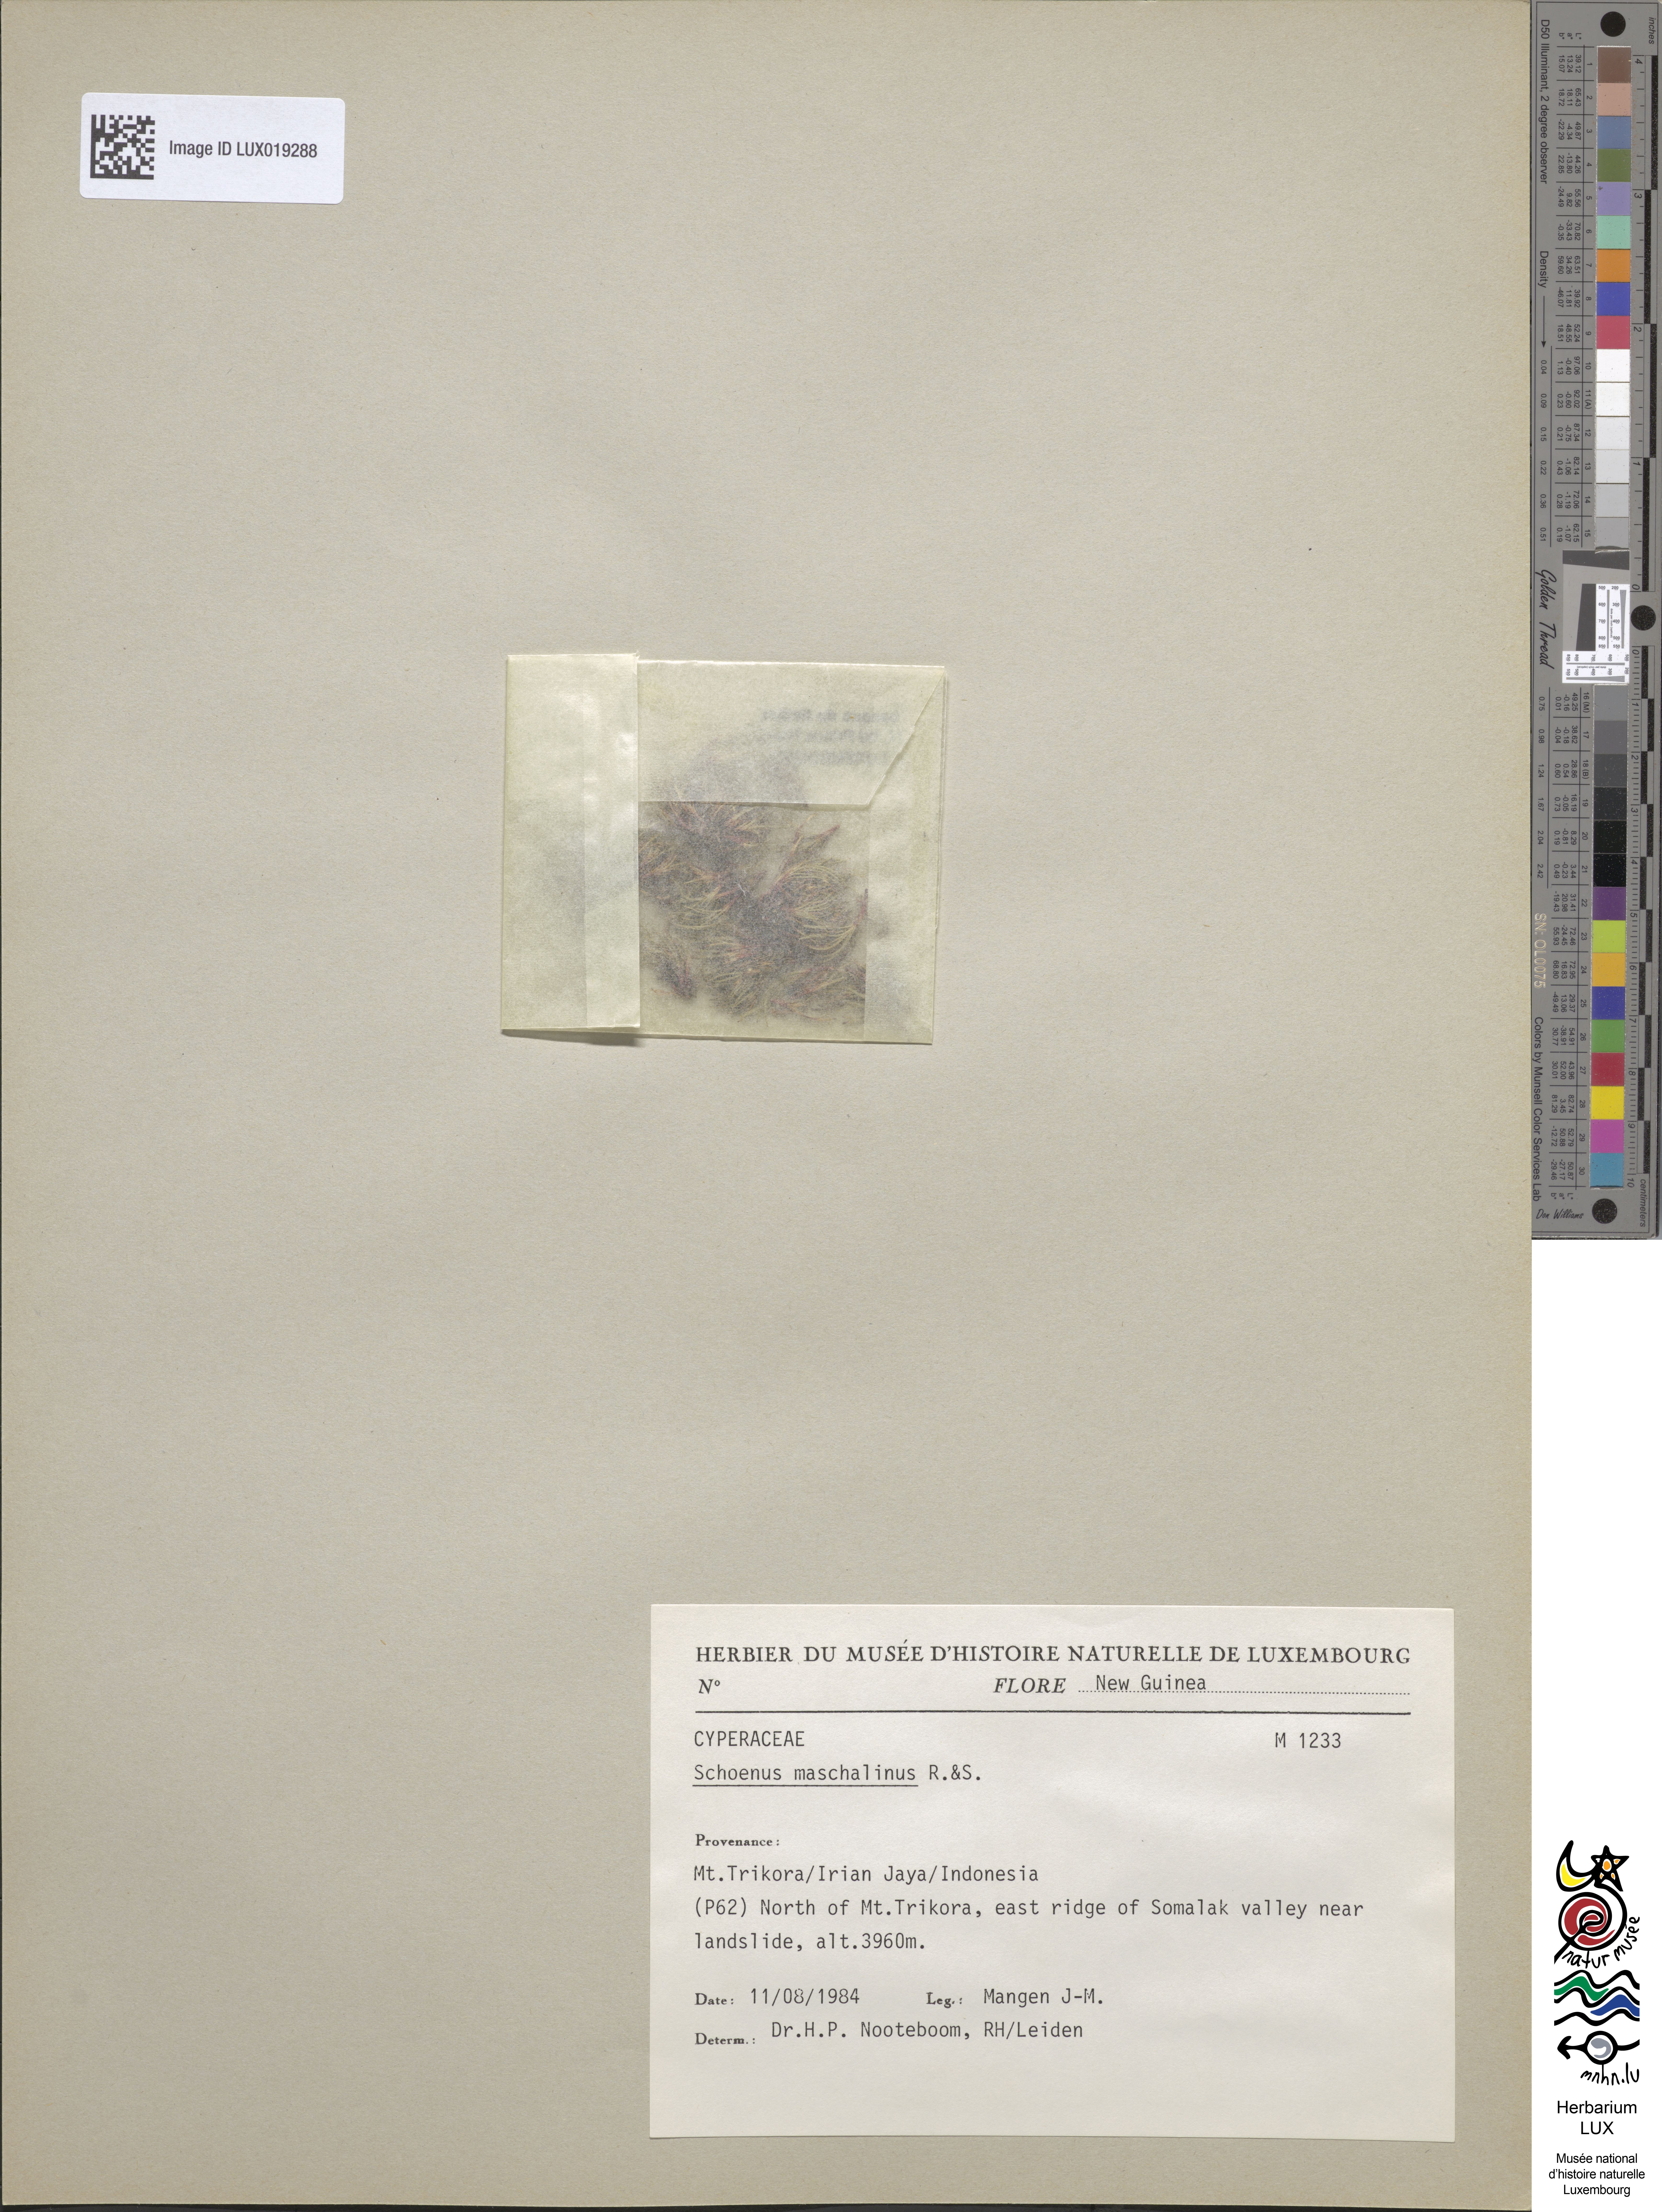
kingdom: Plantae
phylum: Tracheophyta
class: Liliopsida
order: Poales
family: Cyperaceae
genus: Schoenus
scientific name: Schoenus maschalinus
